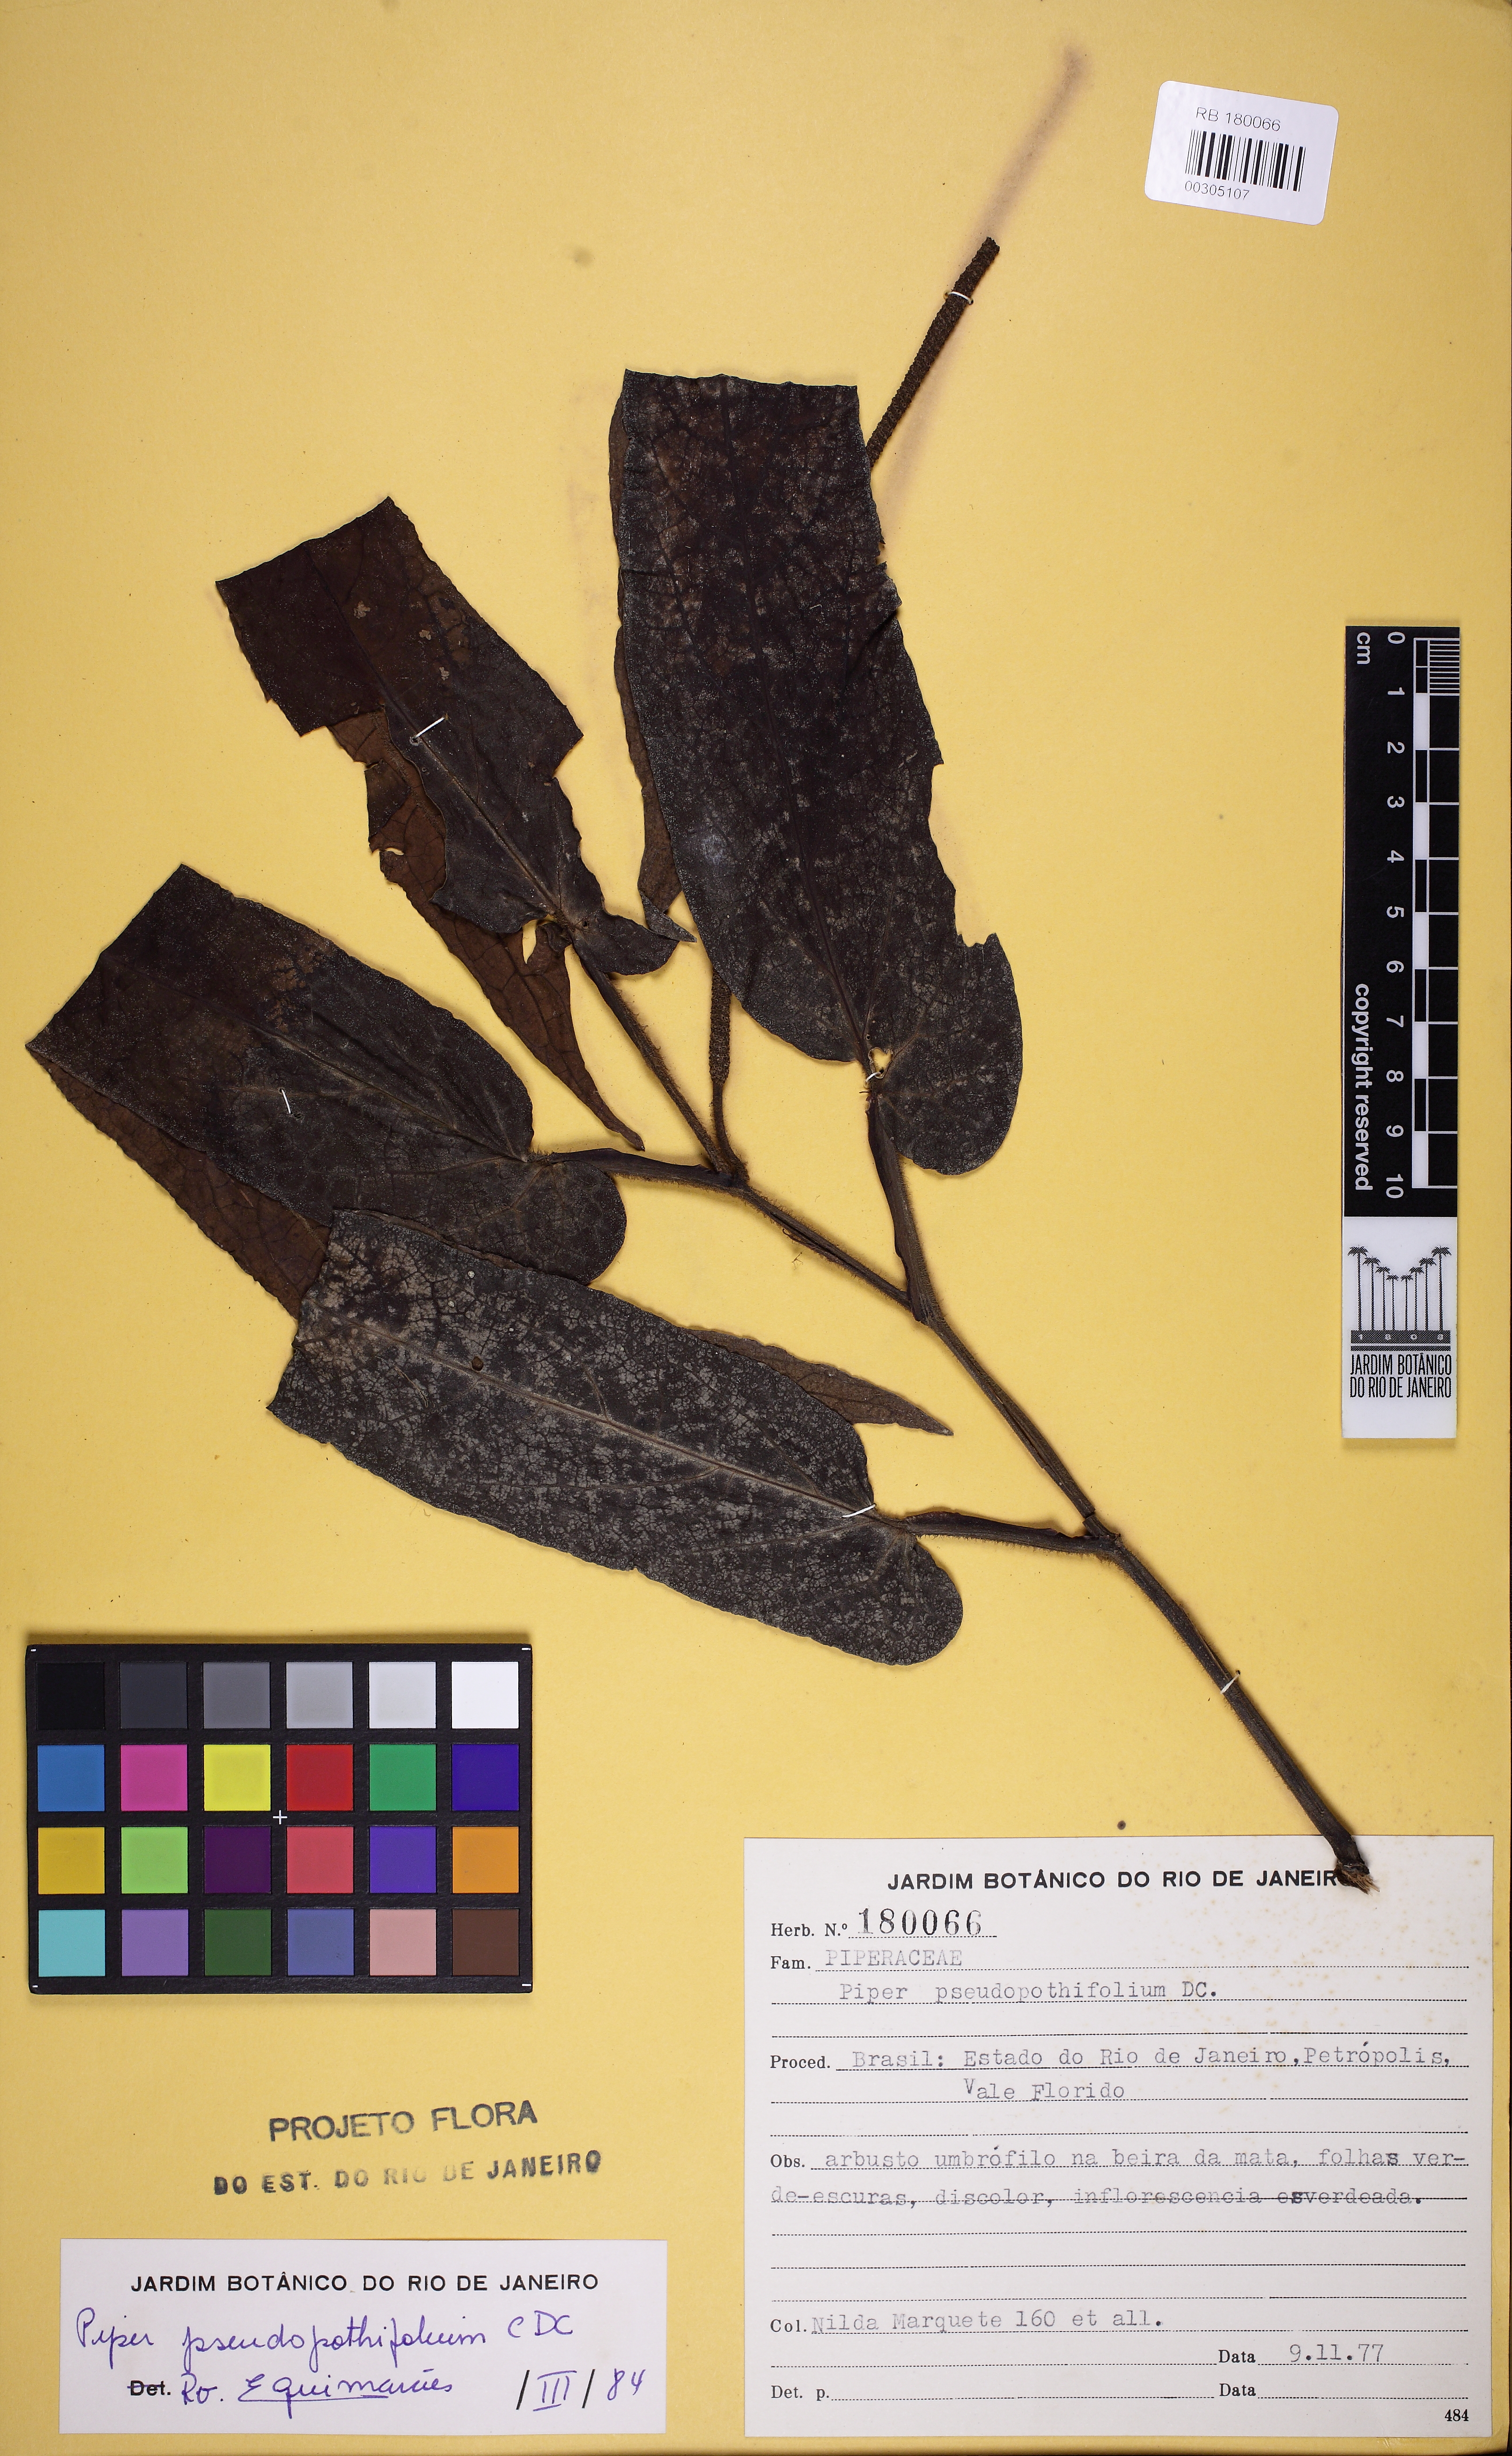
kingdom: Plantae
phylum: Tracheophyta
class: Magnoliopsida
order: Piperales
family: Piperaceae
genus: Piper
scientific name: Piper pseudopothifolium
